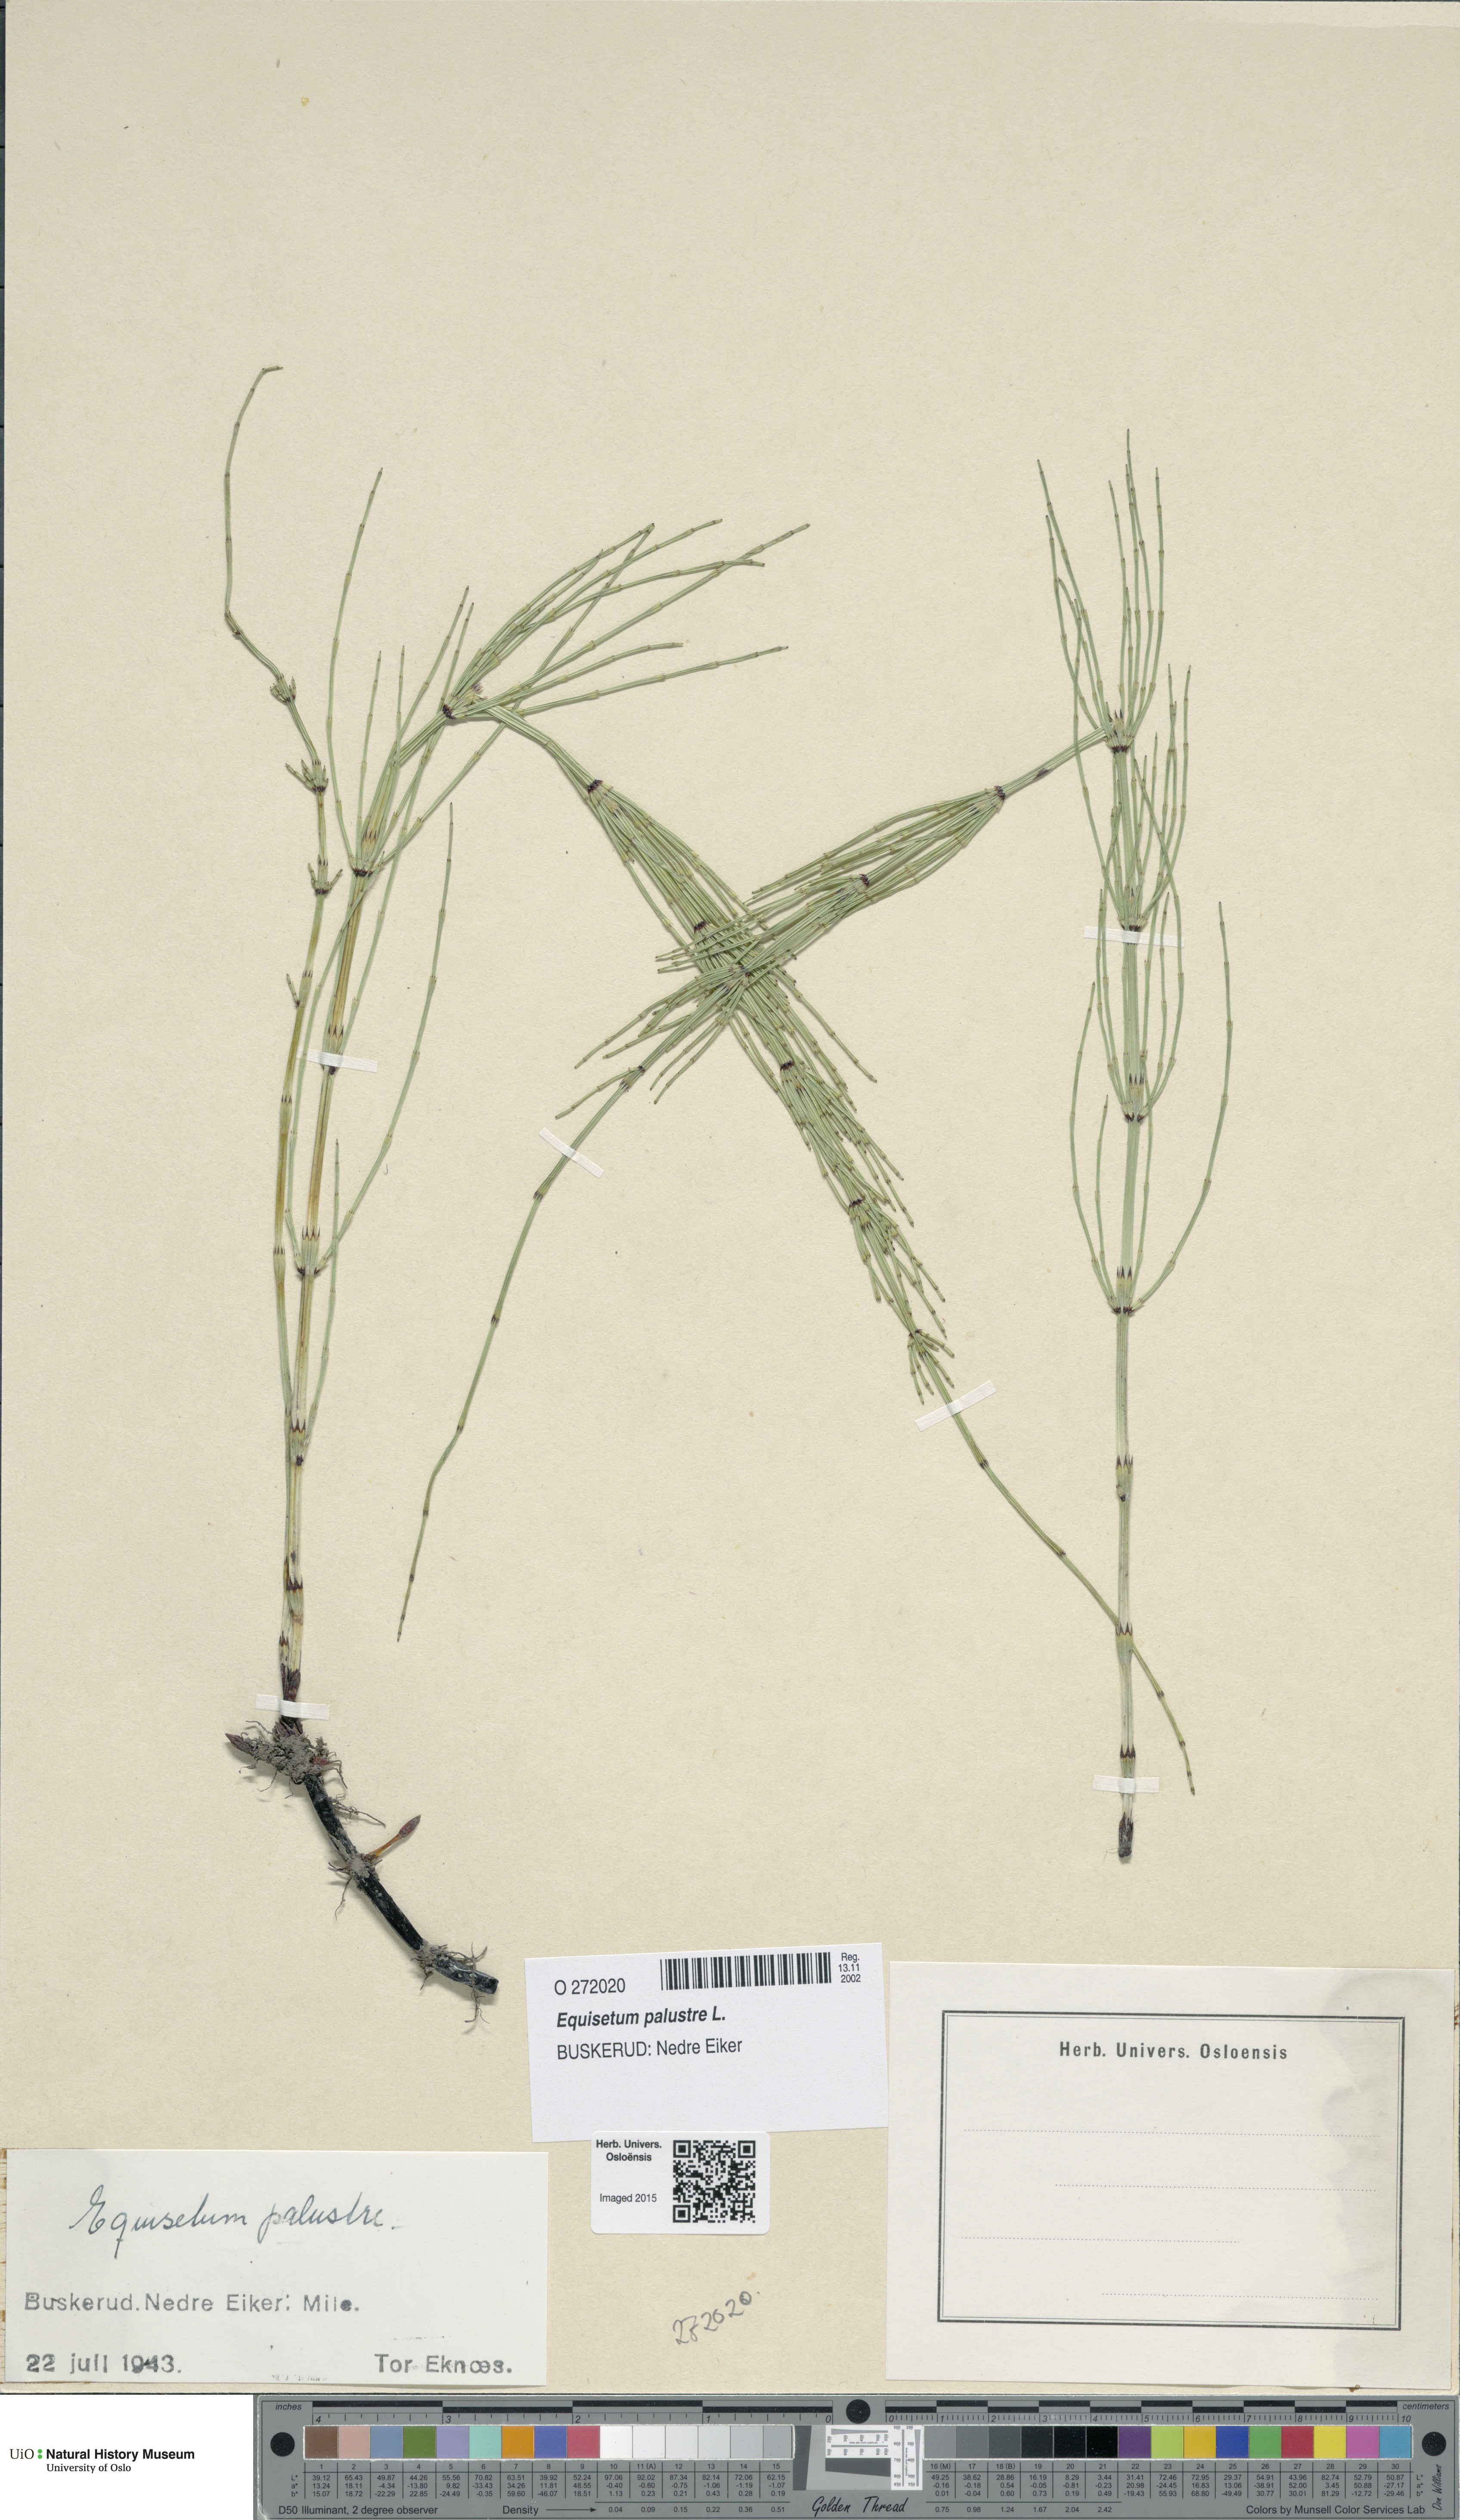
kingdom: Plantae
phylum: Tracheophyta
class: Polypodiopsida
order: Equisetales
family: Equisetaceae
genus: Equisetum
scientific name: Equisetum palustre
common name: Marsh horsetail
